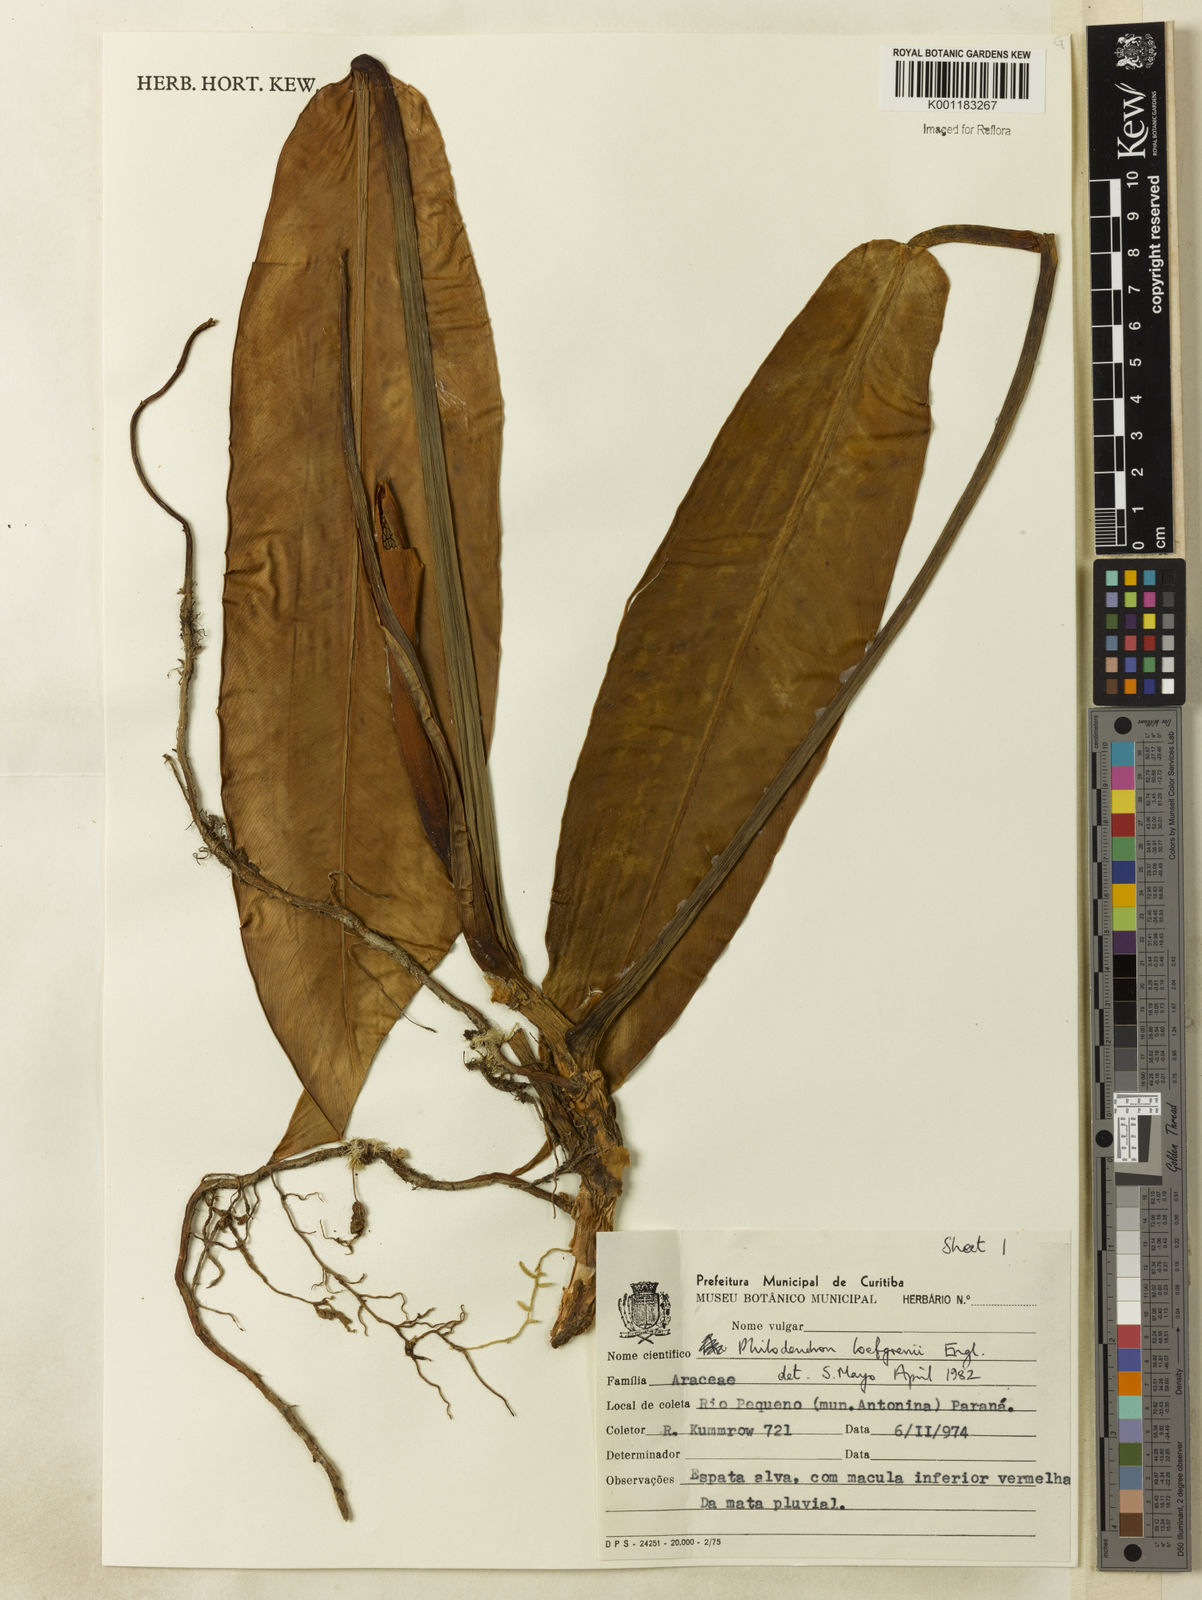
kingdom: Plantae
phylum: Tracheophyta
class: Liliopsida
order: Alismatales
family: Araceae
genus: Philodendron
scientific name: Philodendron loefgrenii
